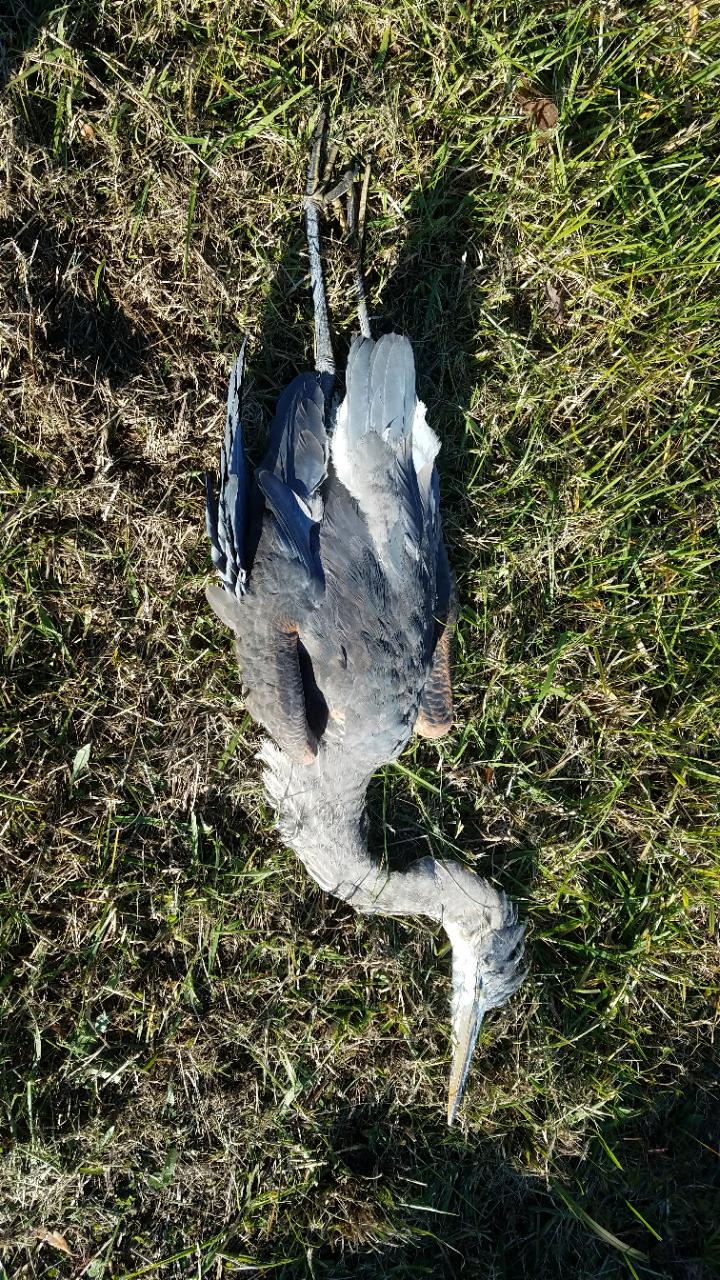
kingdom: Animalia
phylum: Chordata
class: Aves
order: Pelecaniformes
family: Ardeidae
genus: Ardea
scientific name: Ardea herodias
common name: Great blue heron
